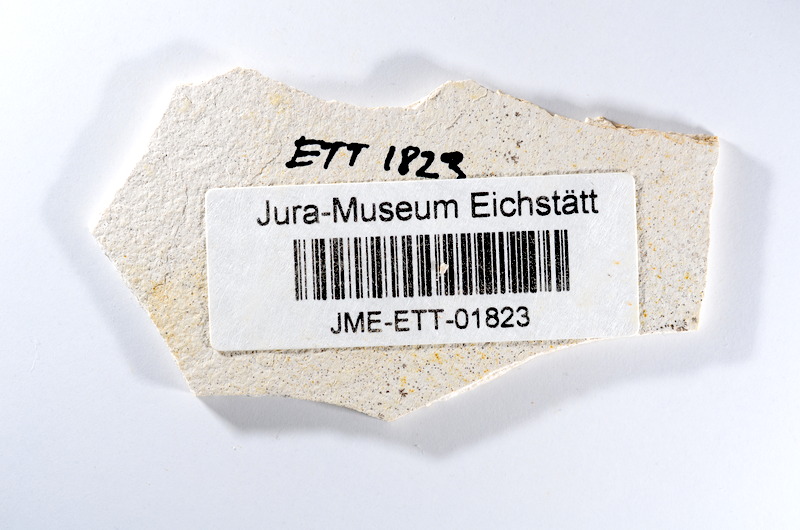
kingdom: Animalia
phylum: Chordata
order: Salmoniformes
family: Orthogonikleithridae
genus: Orthogonikleithrus
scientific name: Orthogonikleithrus hoelli
